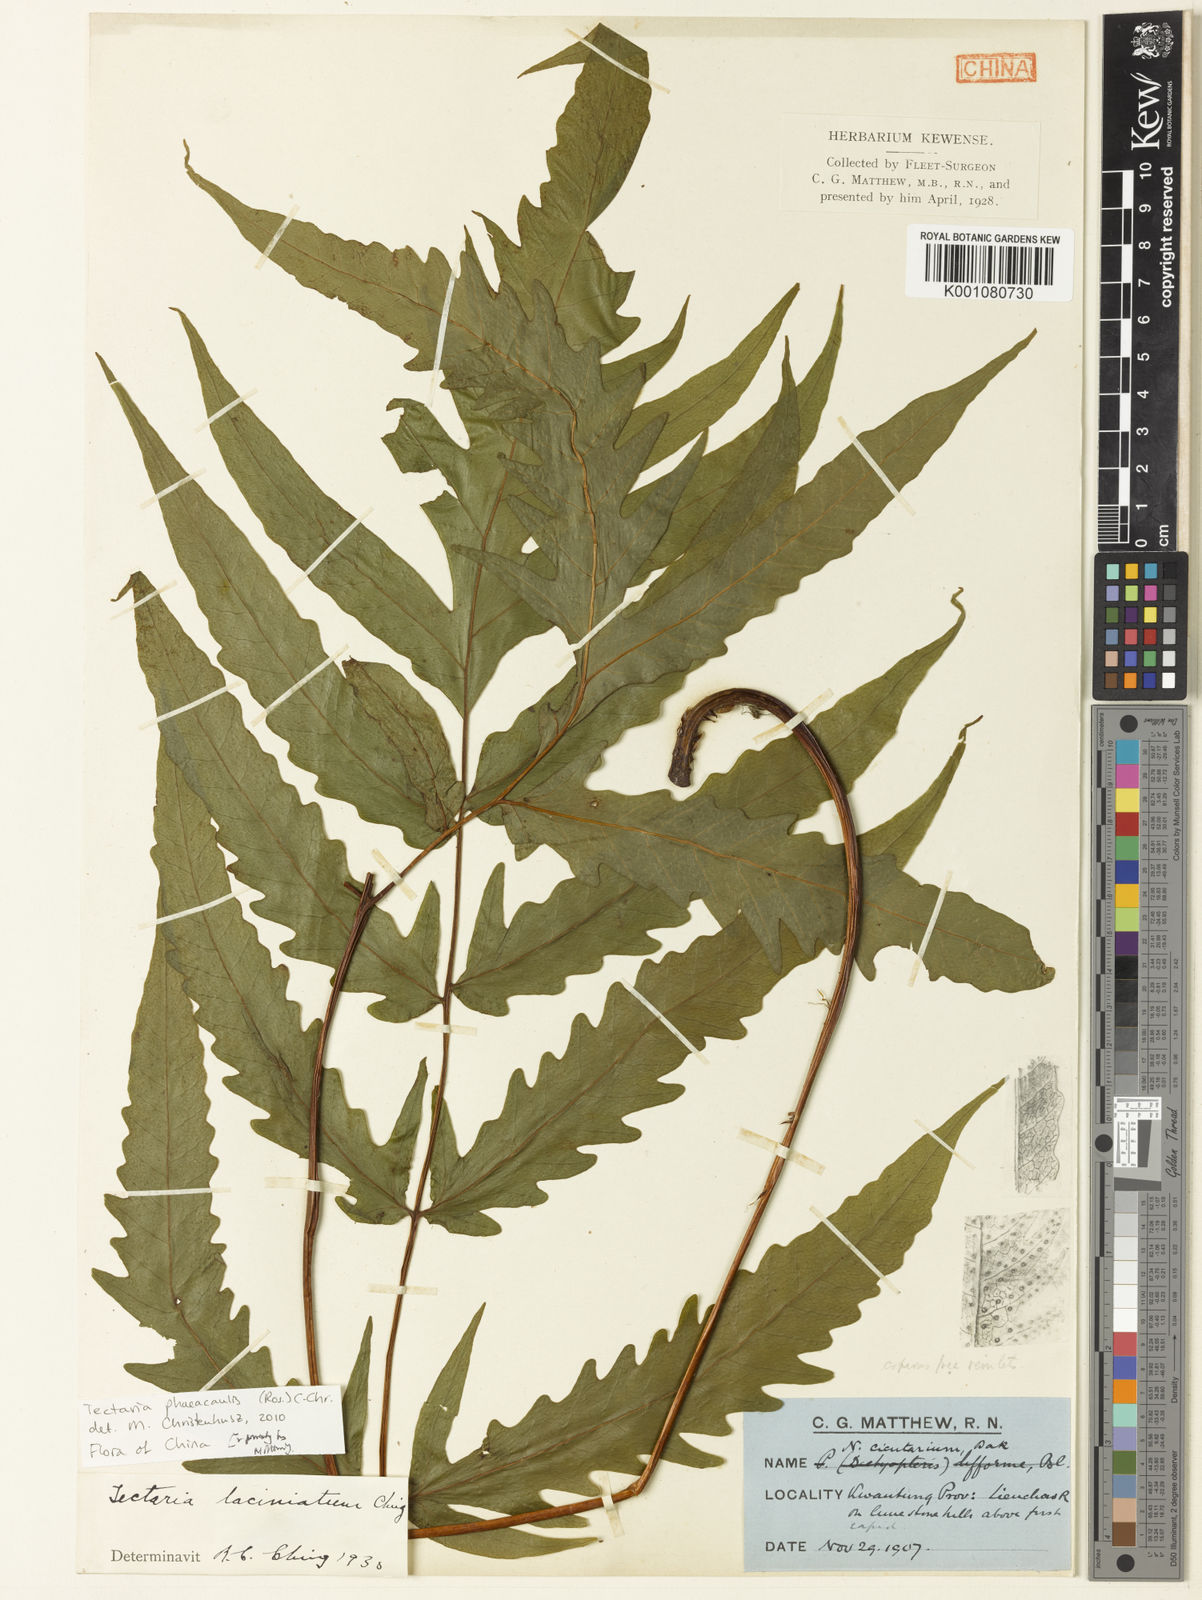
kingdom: Plantae
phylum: Tracheophyta
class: Polypodiopsida
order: Polypodiales
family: Tectariaceae
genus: Tectaria
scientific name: Tectaria phaeocaulis
